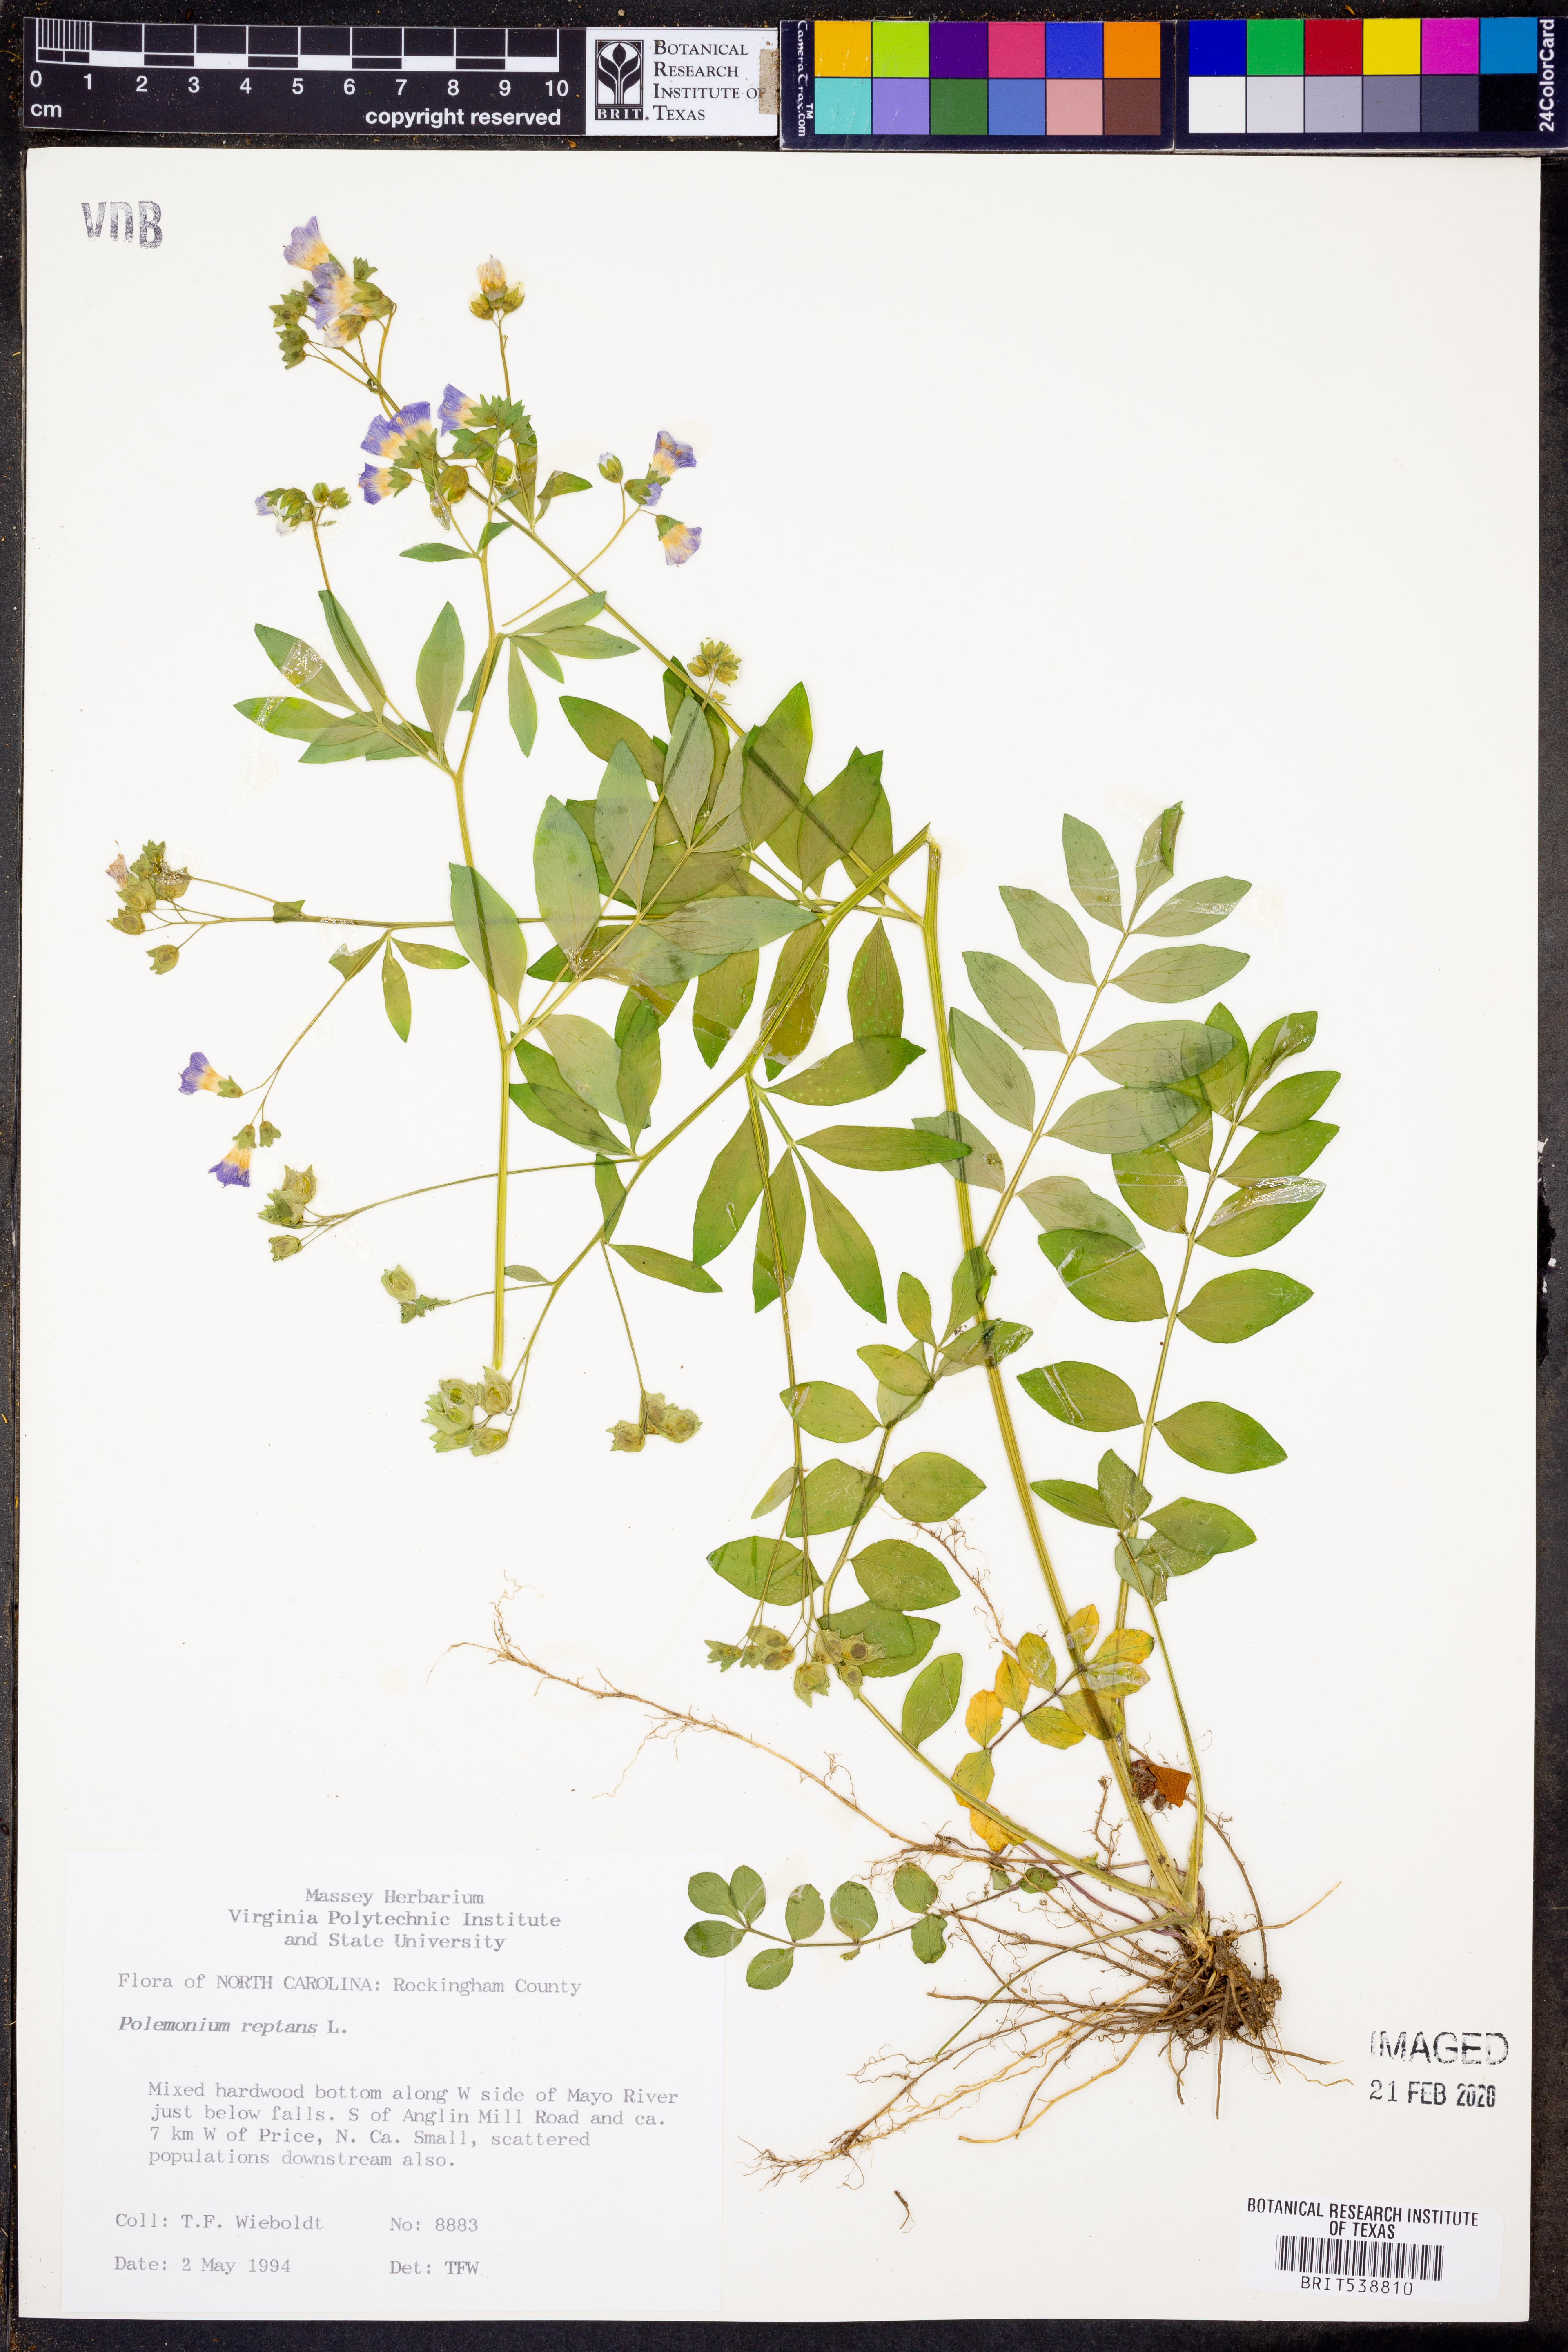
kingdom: Plantae
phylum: Tracheophyta
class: Magnoliopsida
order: Ericales
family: Polemoniaceae
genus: Polemonium
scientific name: Polemonium reptans
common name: Creeping jacob's-ladder
